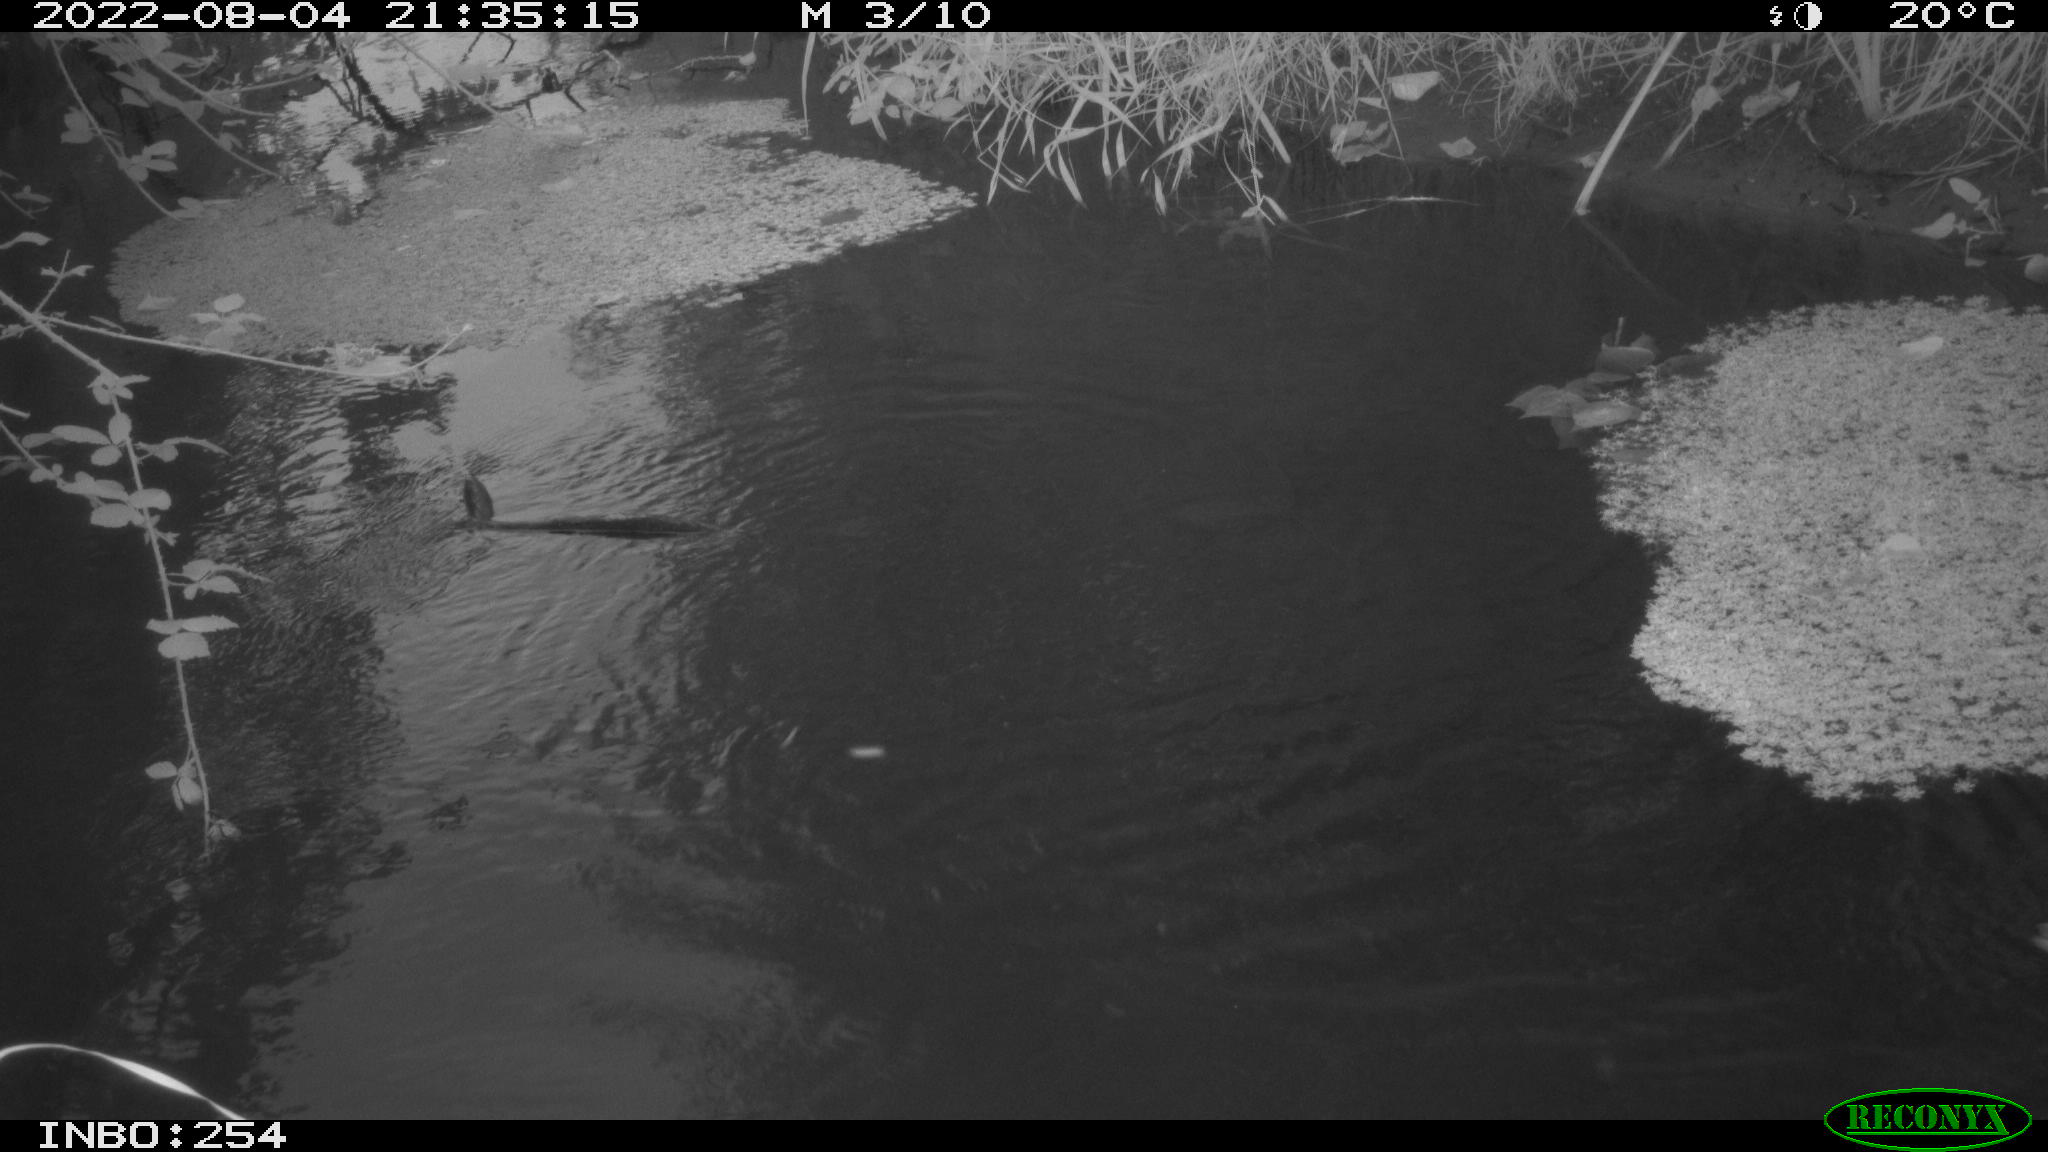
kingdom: Animalia
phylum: Chordata
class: Aves
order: Anseriformes
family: Anatidae
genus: Anas
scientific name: Anas platyrhynchos
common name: Mallard
